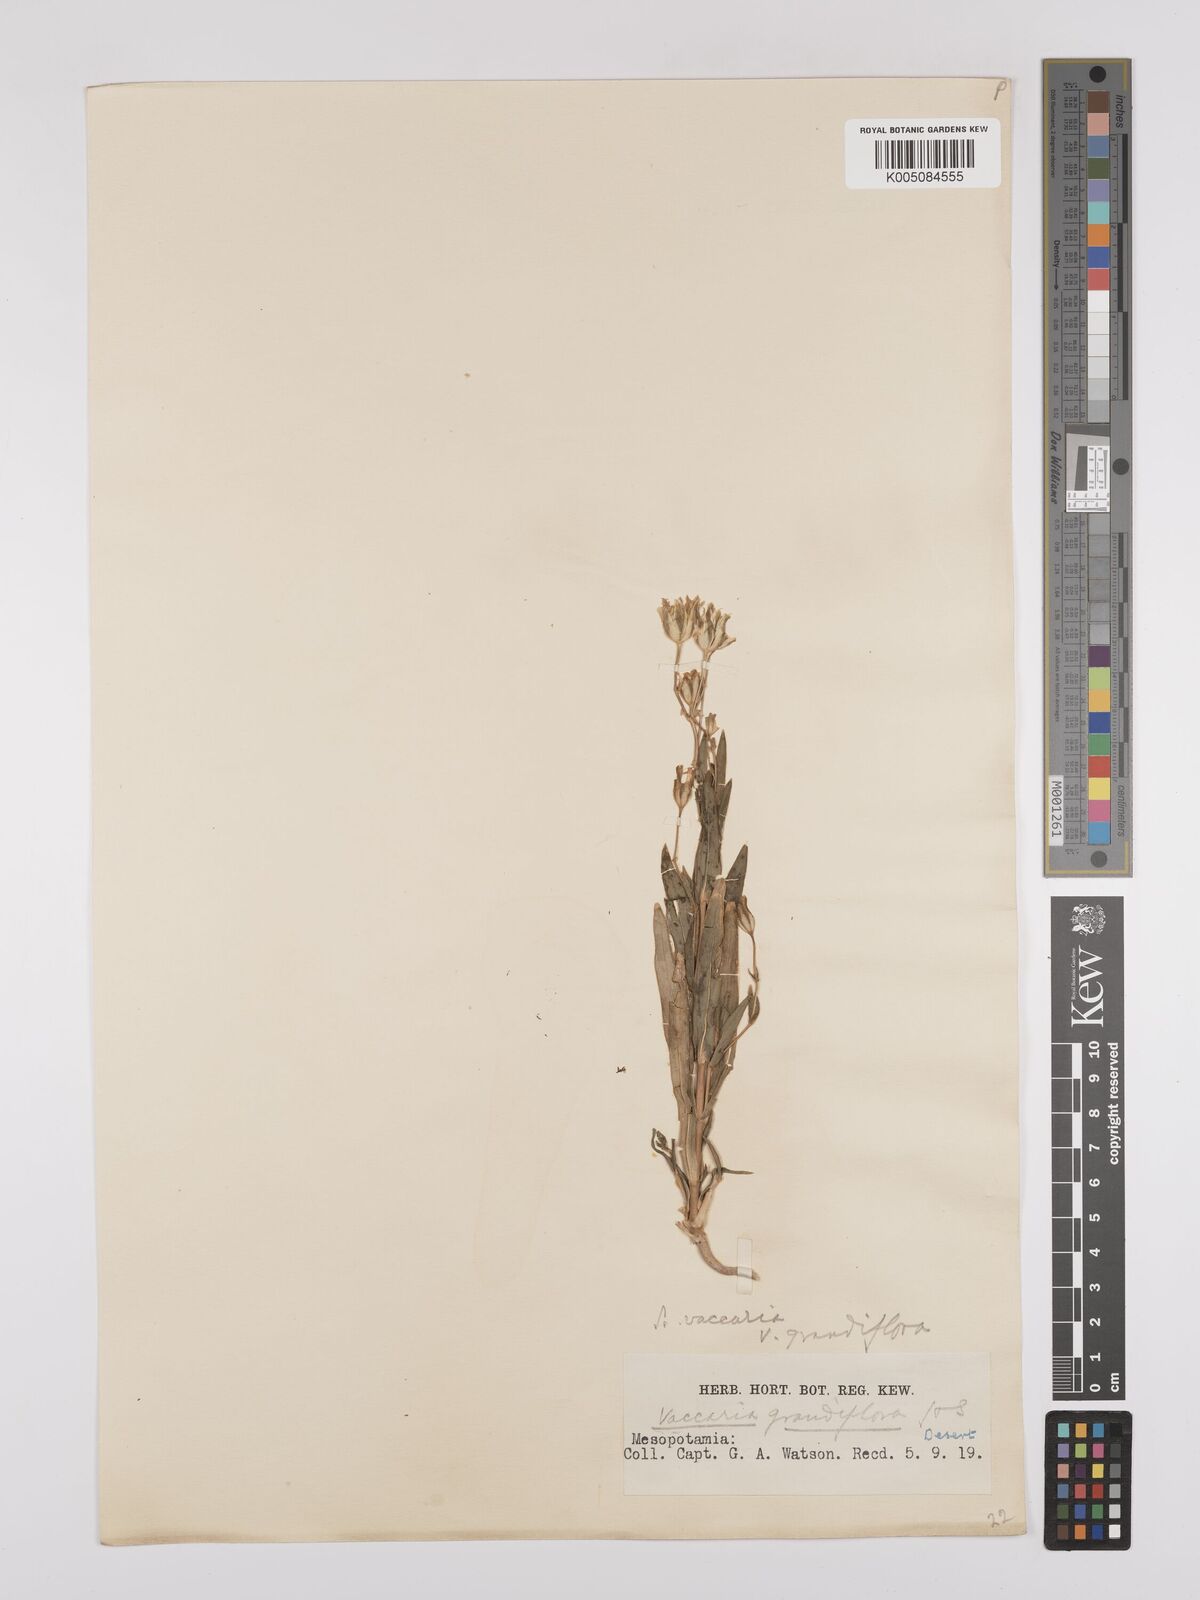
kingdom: Plantae
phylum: Tracheophyta
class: Magnoliopsida
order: Caryophyllales
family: Caryophyllaceae
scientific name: Caryophyllaceae
